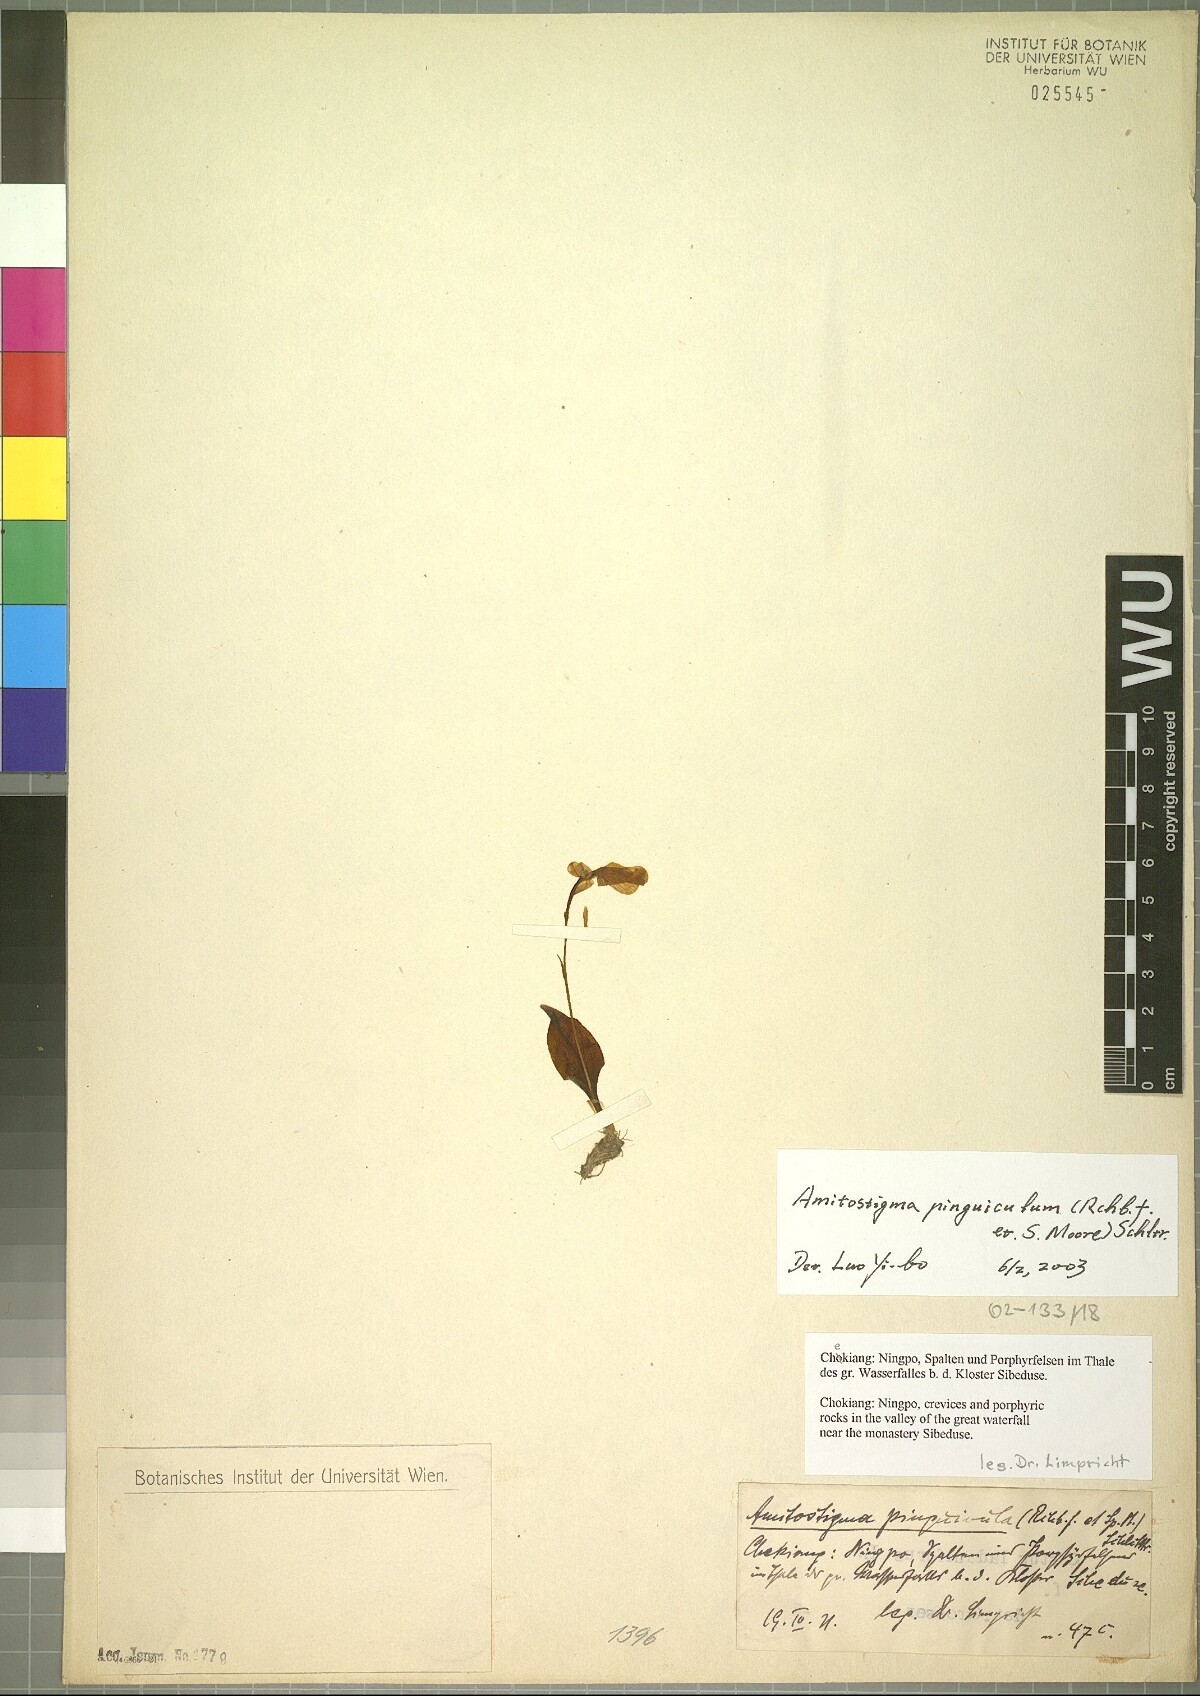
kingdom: Plantae
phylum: Tracheophyta
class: Liliopsida
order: Asparagales
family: Orchidaceae
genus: Hemipilia
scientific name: Hemipilia pinguicula
